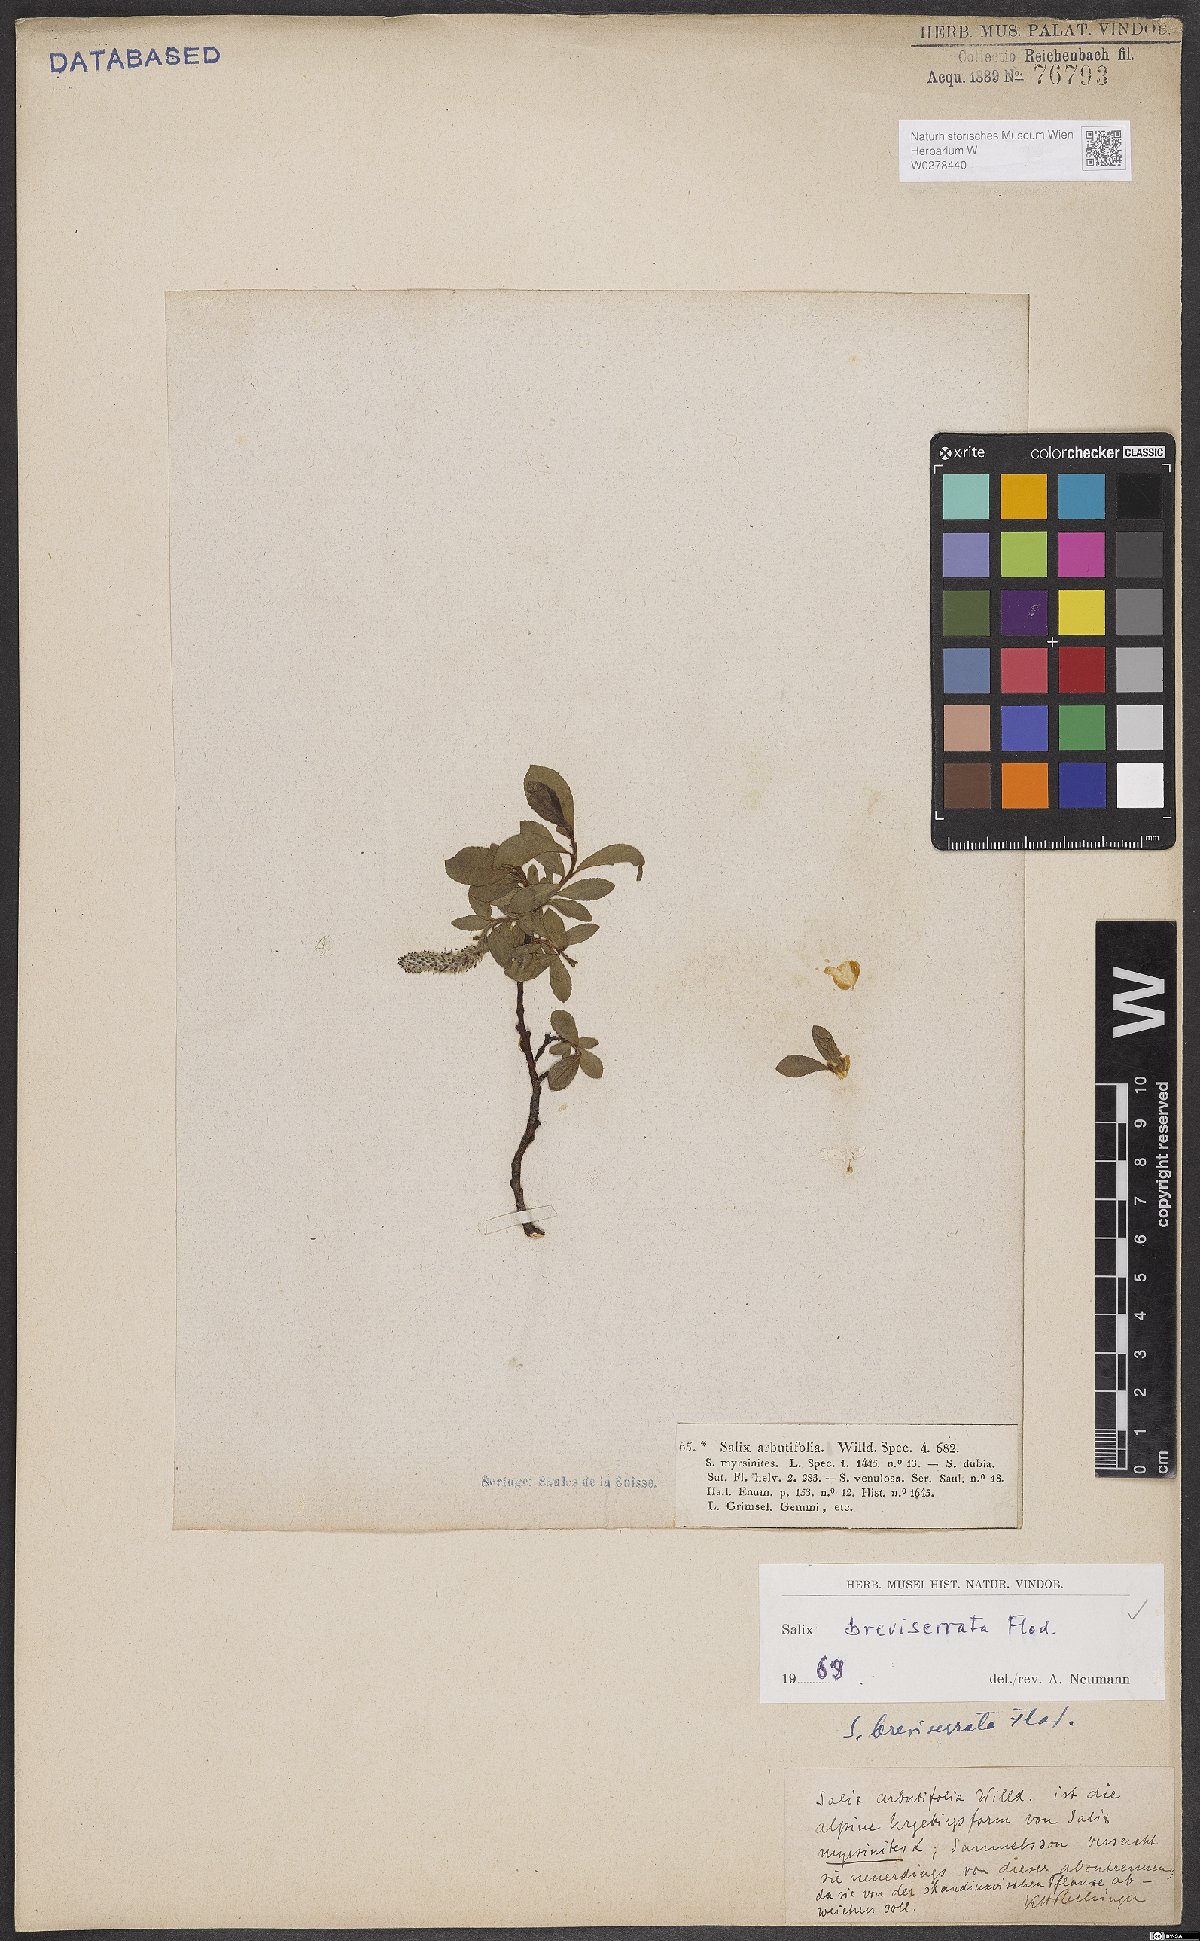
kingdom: Plantae
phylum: Tracheophyta
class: Magnoliopsida
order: Malpighiales
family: Salicaceae
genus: Salix
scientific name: Salix breviserrata
